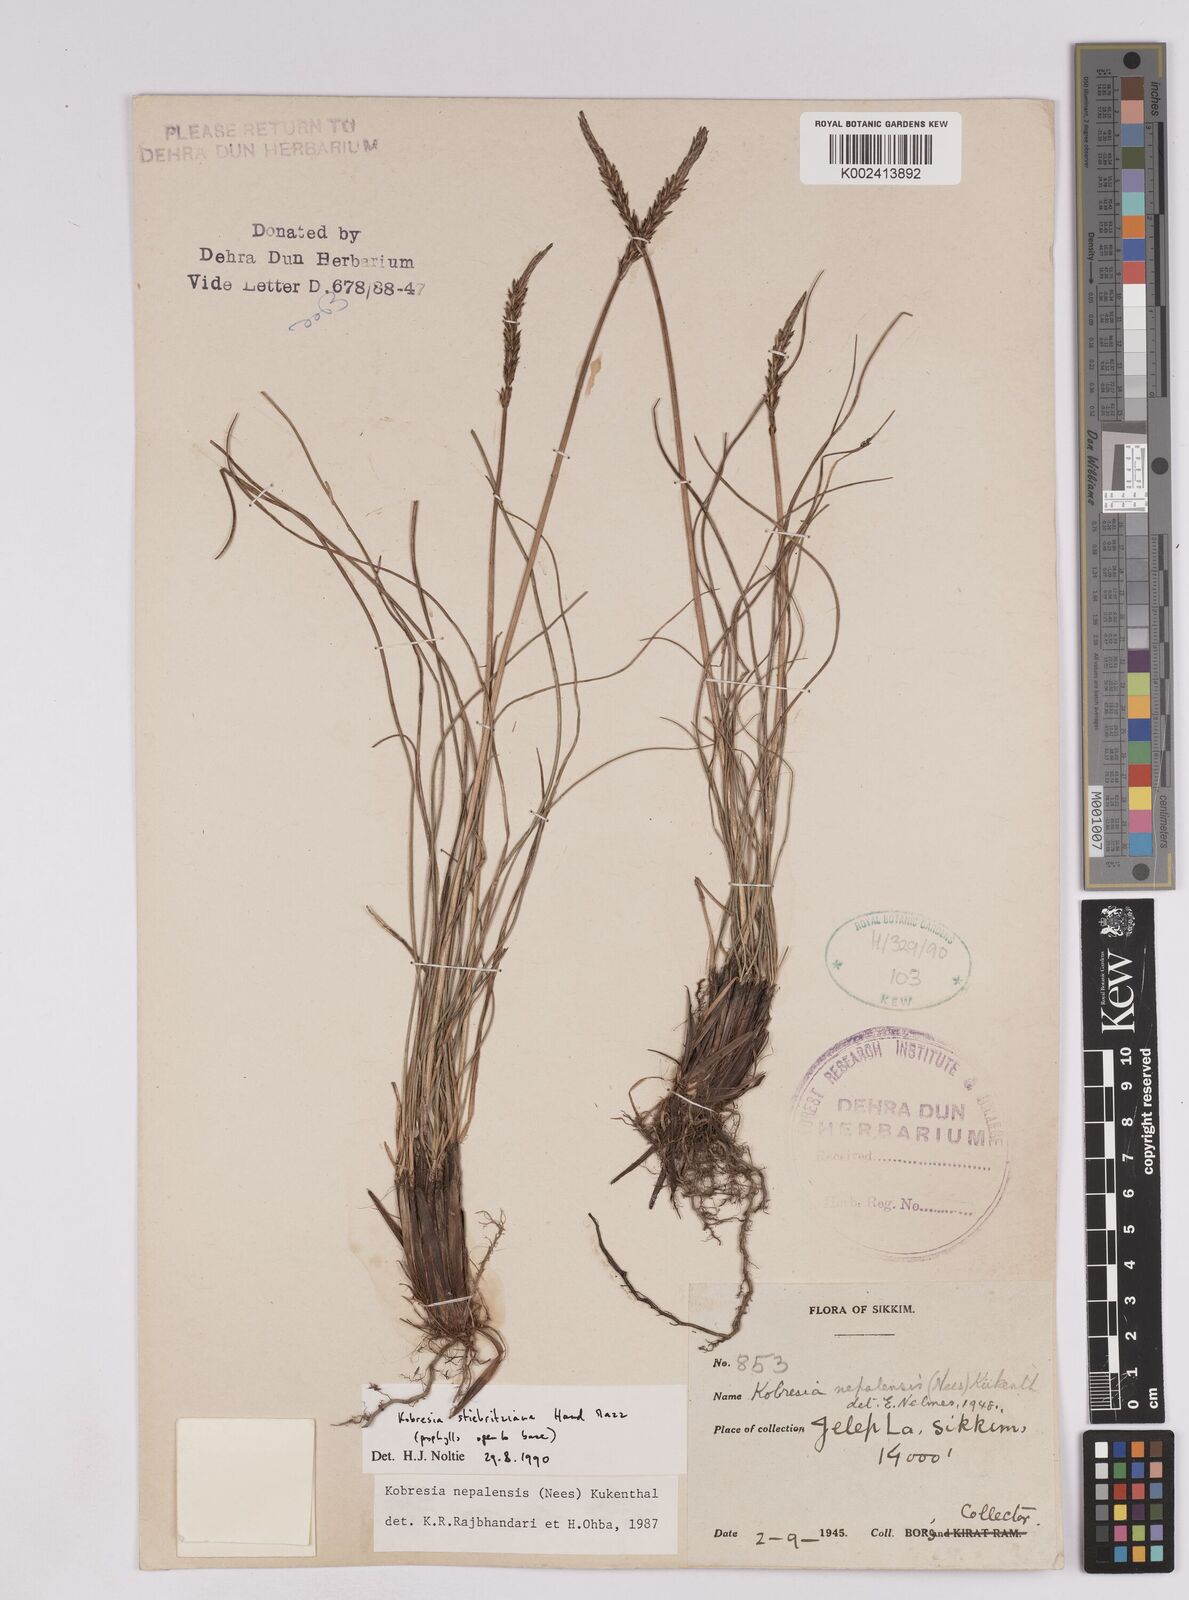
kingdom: Plantae
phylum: Tracheophyta
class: Liliopsida
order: Poales
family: Cyperaceae
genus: Carex
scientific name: Carex cercostachys
